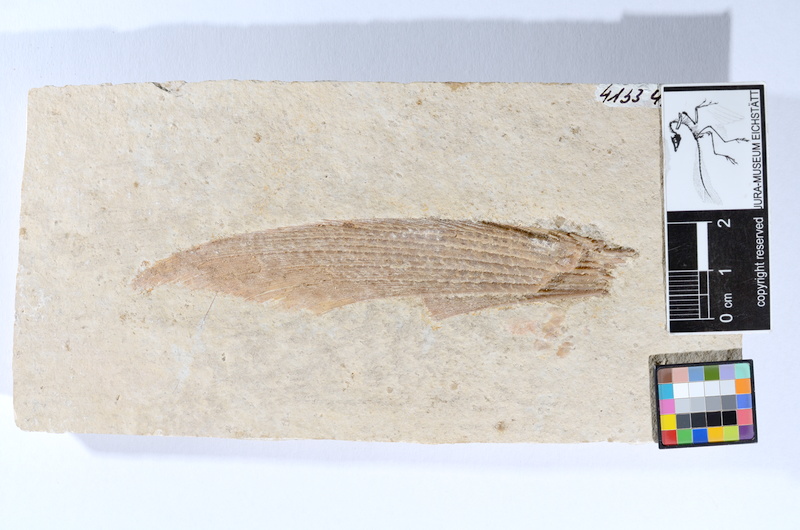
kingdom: Animalia
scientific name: Animalia
